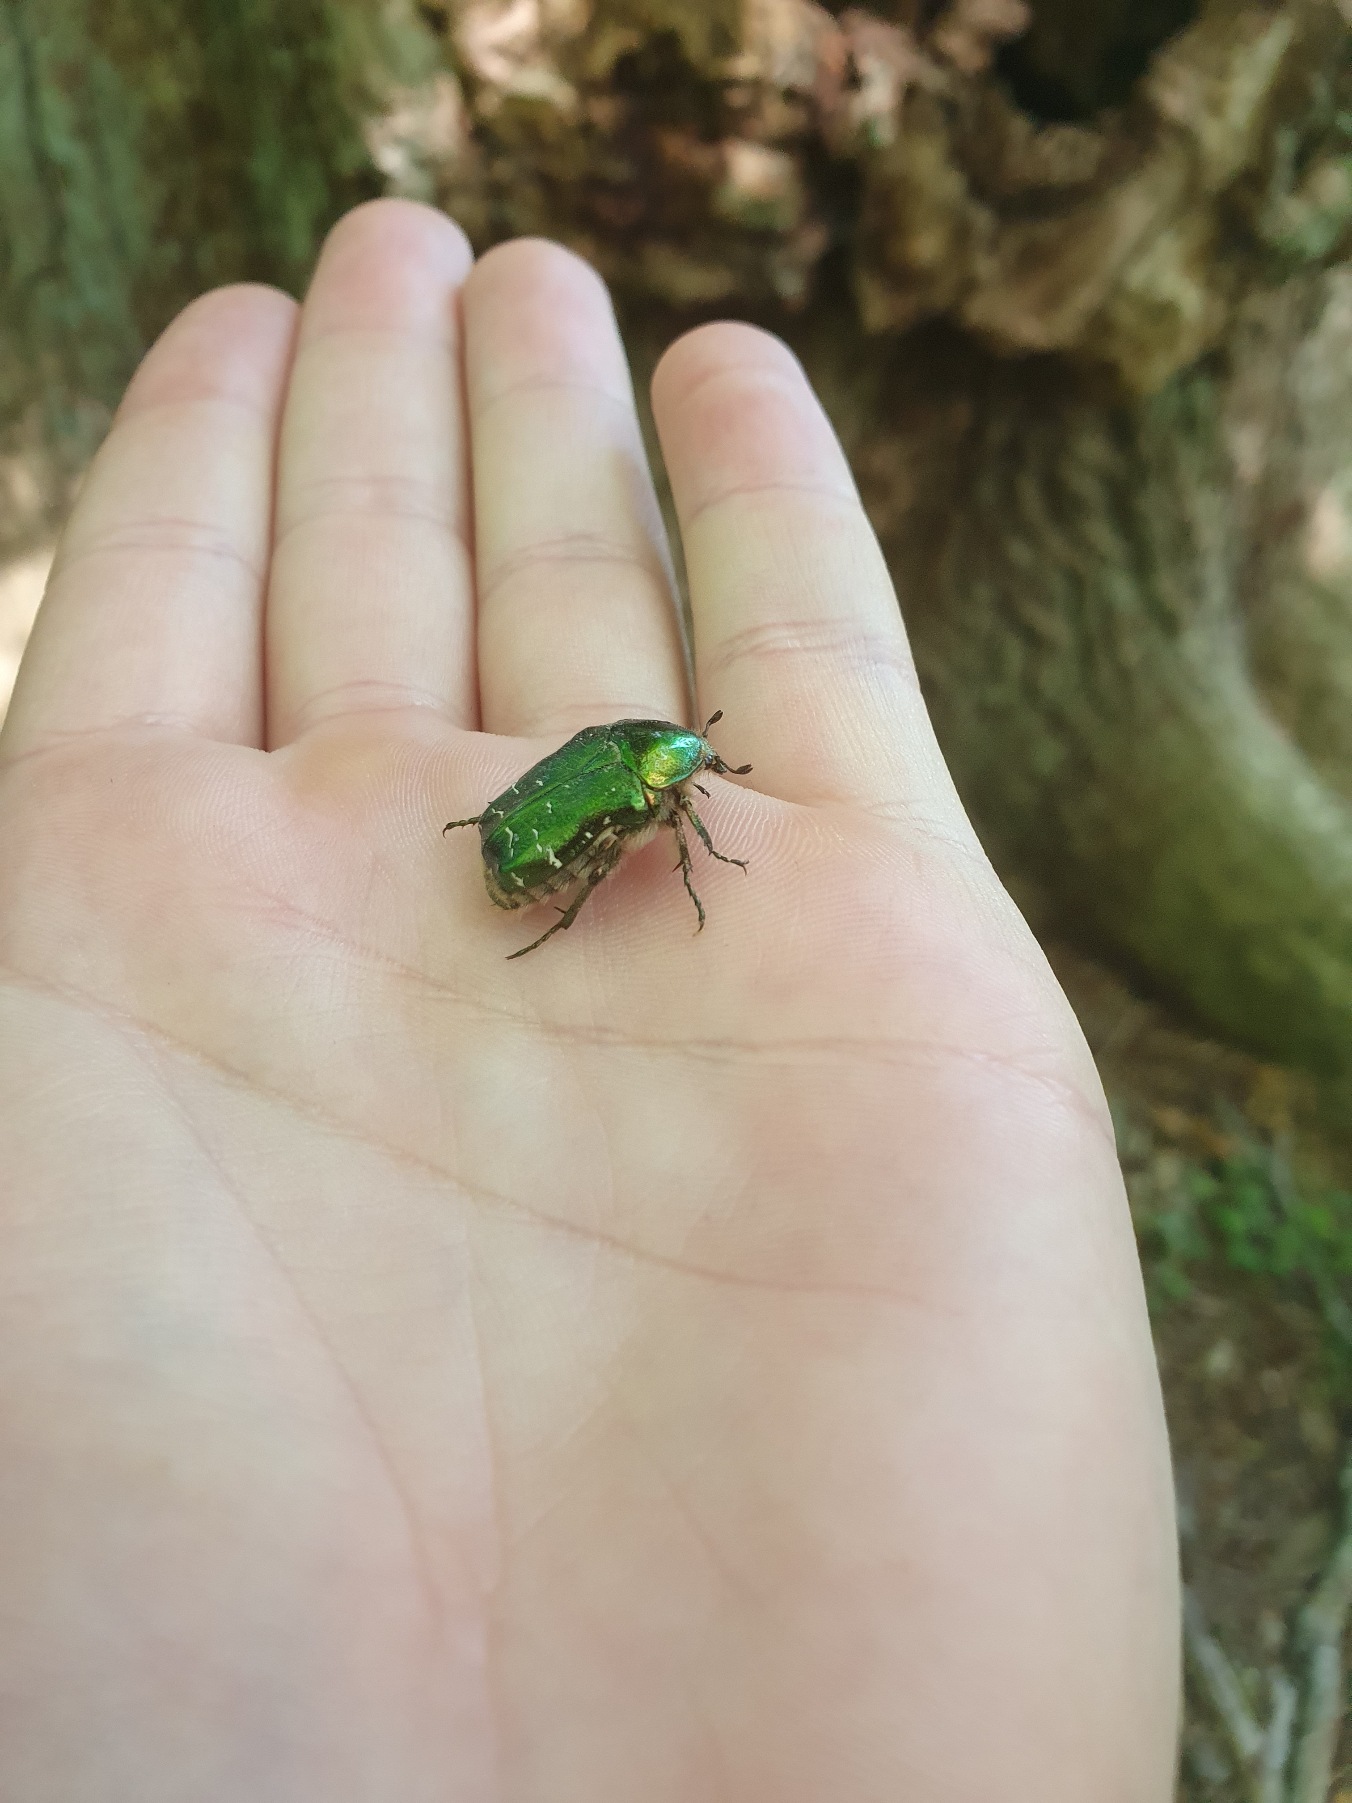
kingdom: Animalia
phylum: Arthropoda
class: Insecta
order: Coleoptera
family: Scarabaeidae
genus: Cetonia
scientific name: Cetonia aurata
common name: Grøn guldbasse
